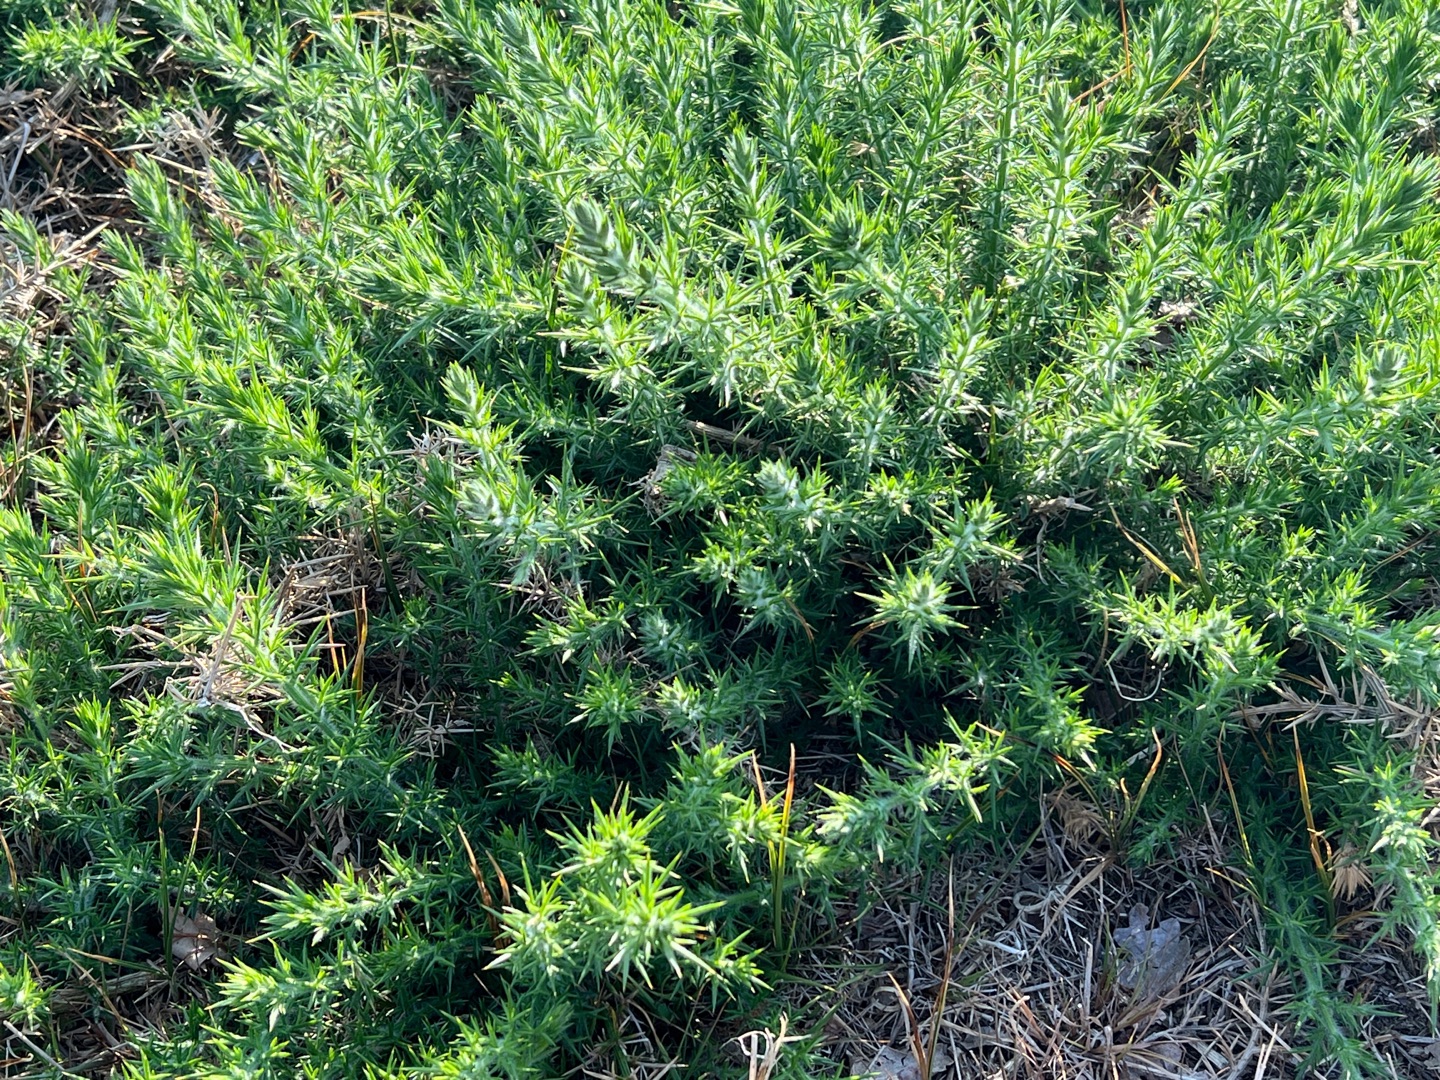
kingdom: Plantae
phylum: Tracheophyta
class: Magnoliopsida
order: Fabales
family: Fabaceae
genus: Ulex
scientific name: Ulex europaeus
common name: Tornblad
